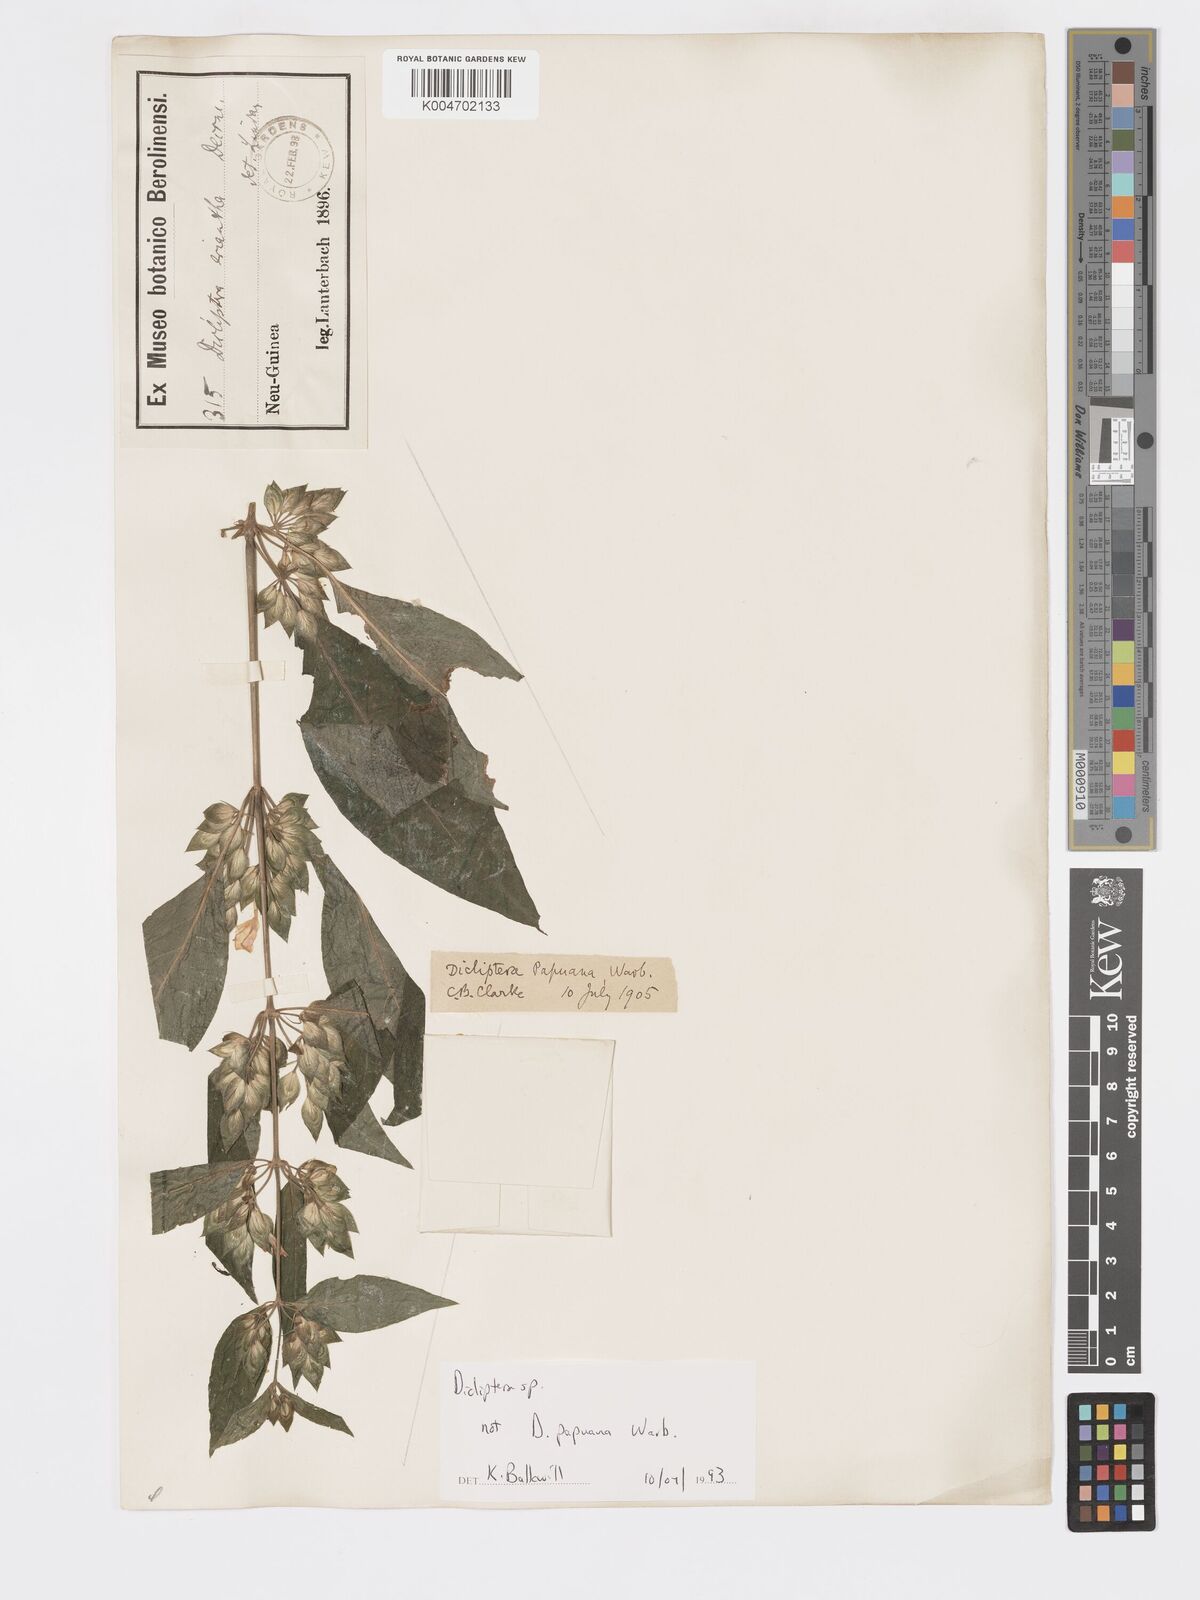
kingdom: Plantae
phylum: Tracheophyta
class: Magnoliopsida
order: Lamiales
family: Acanthaceae
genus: Dicliptera
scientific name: Dicliptera papuana
